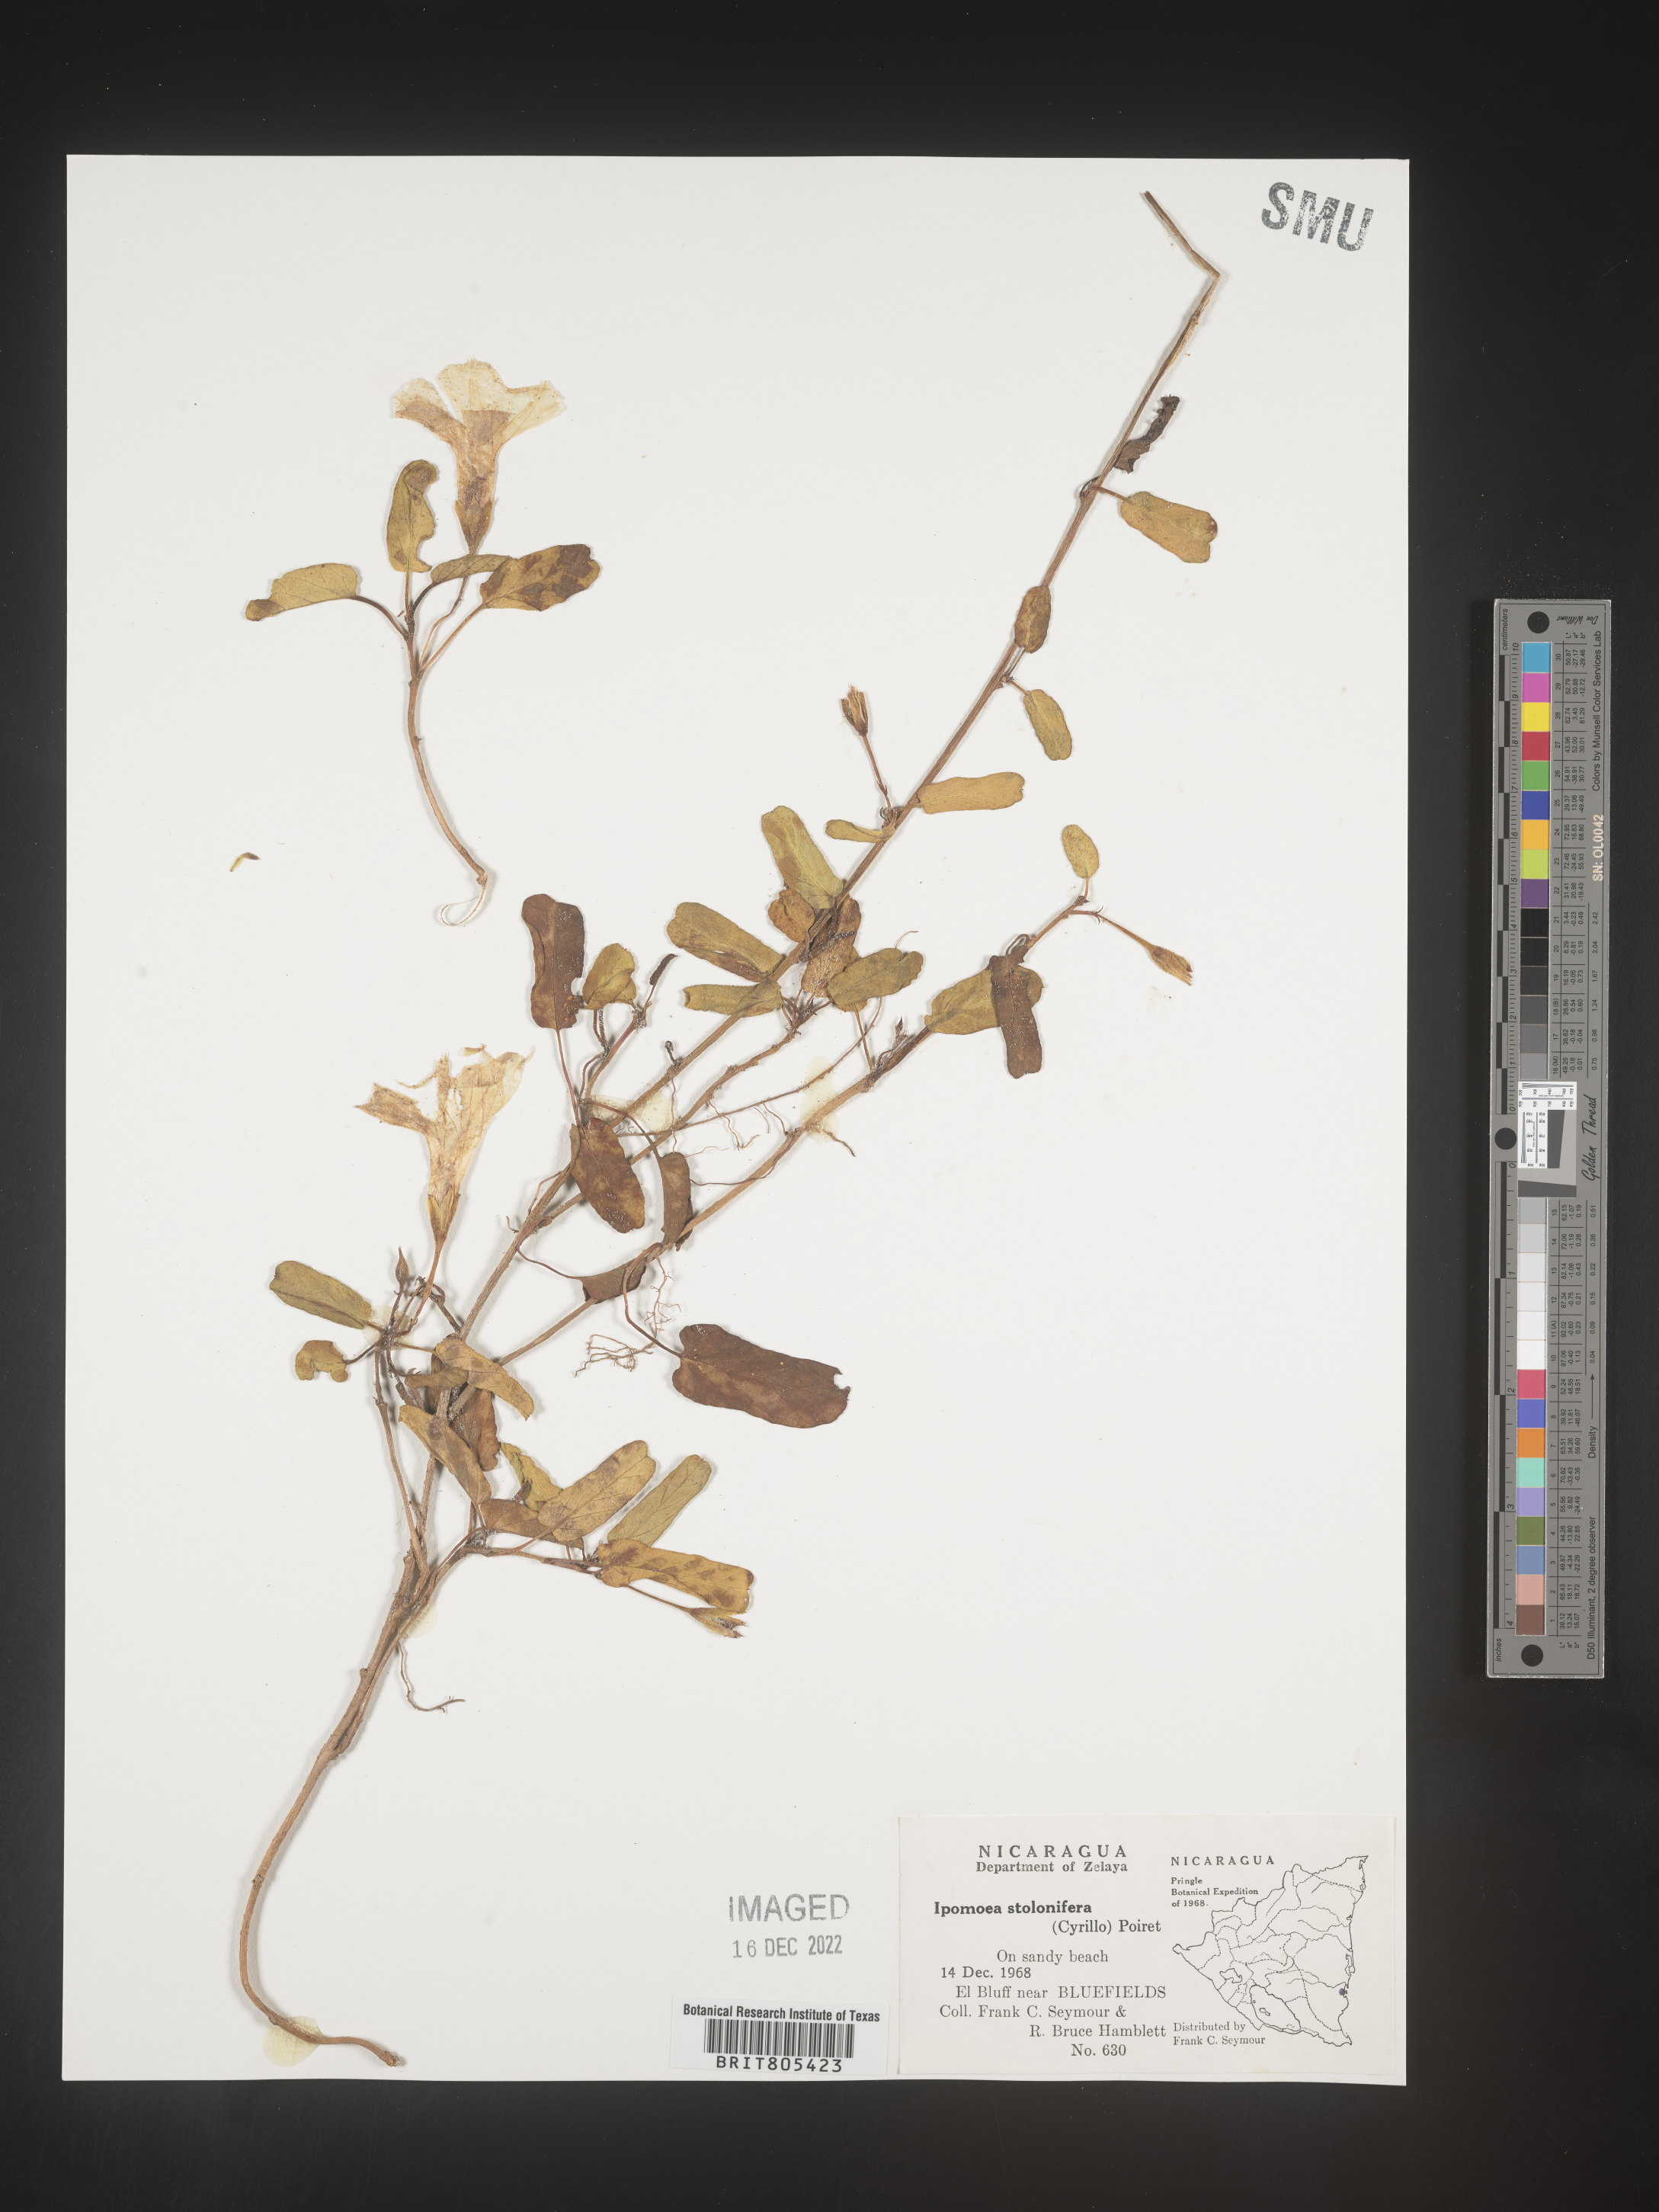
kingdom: Plantae
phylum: Tracheophyta
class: Magnoliopsida
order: Solanales
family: Convolvulaceae
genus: Ipomoea
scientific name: Ipomoea
